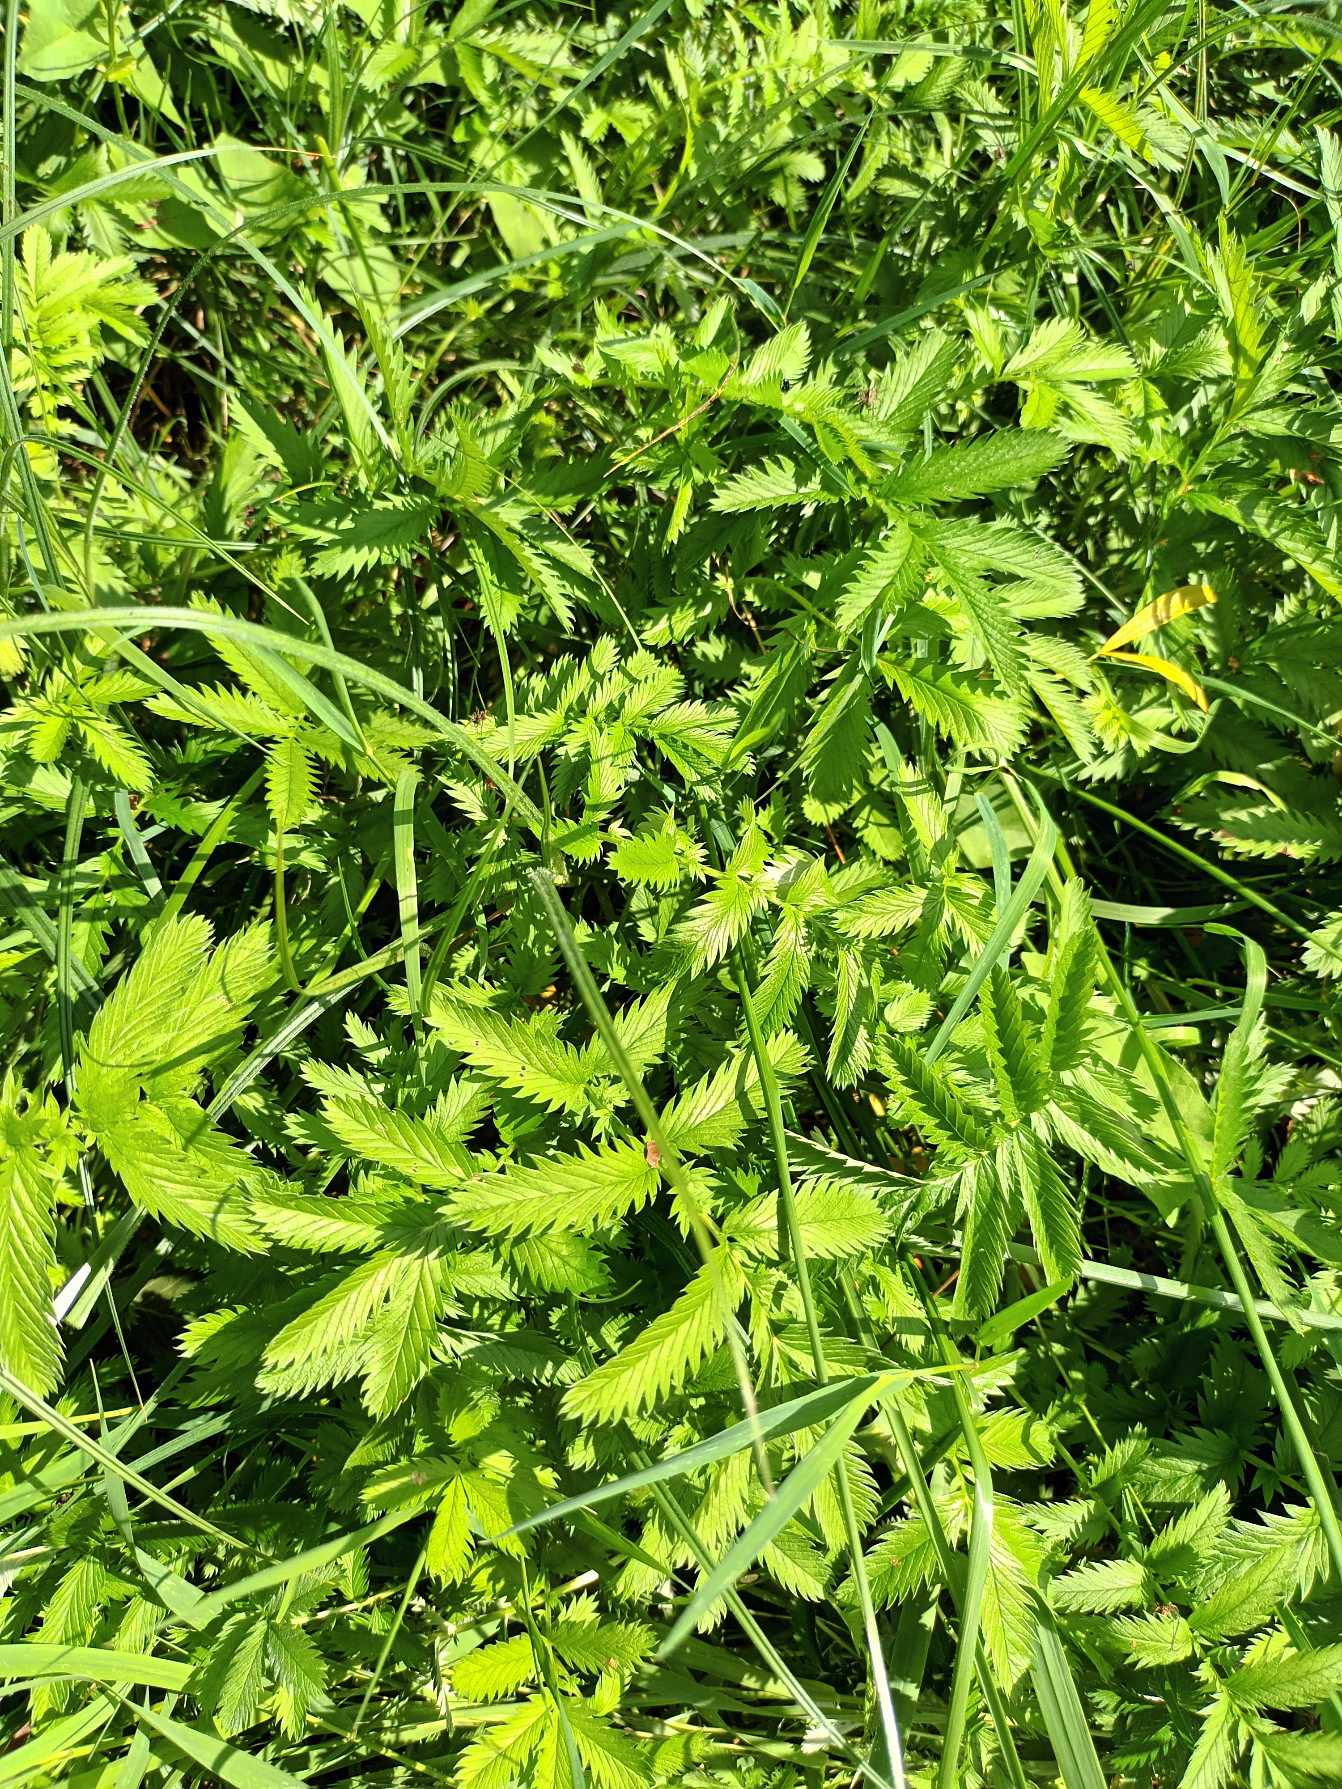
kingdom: Plantae
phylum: Tracheophyta
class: Magnoliopsida
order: Rosales
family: Rosaceae
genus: Argentina
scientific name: Argentina anserina
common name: Gåsepotentil
